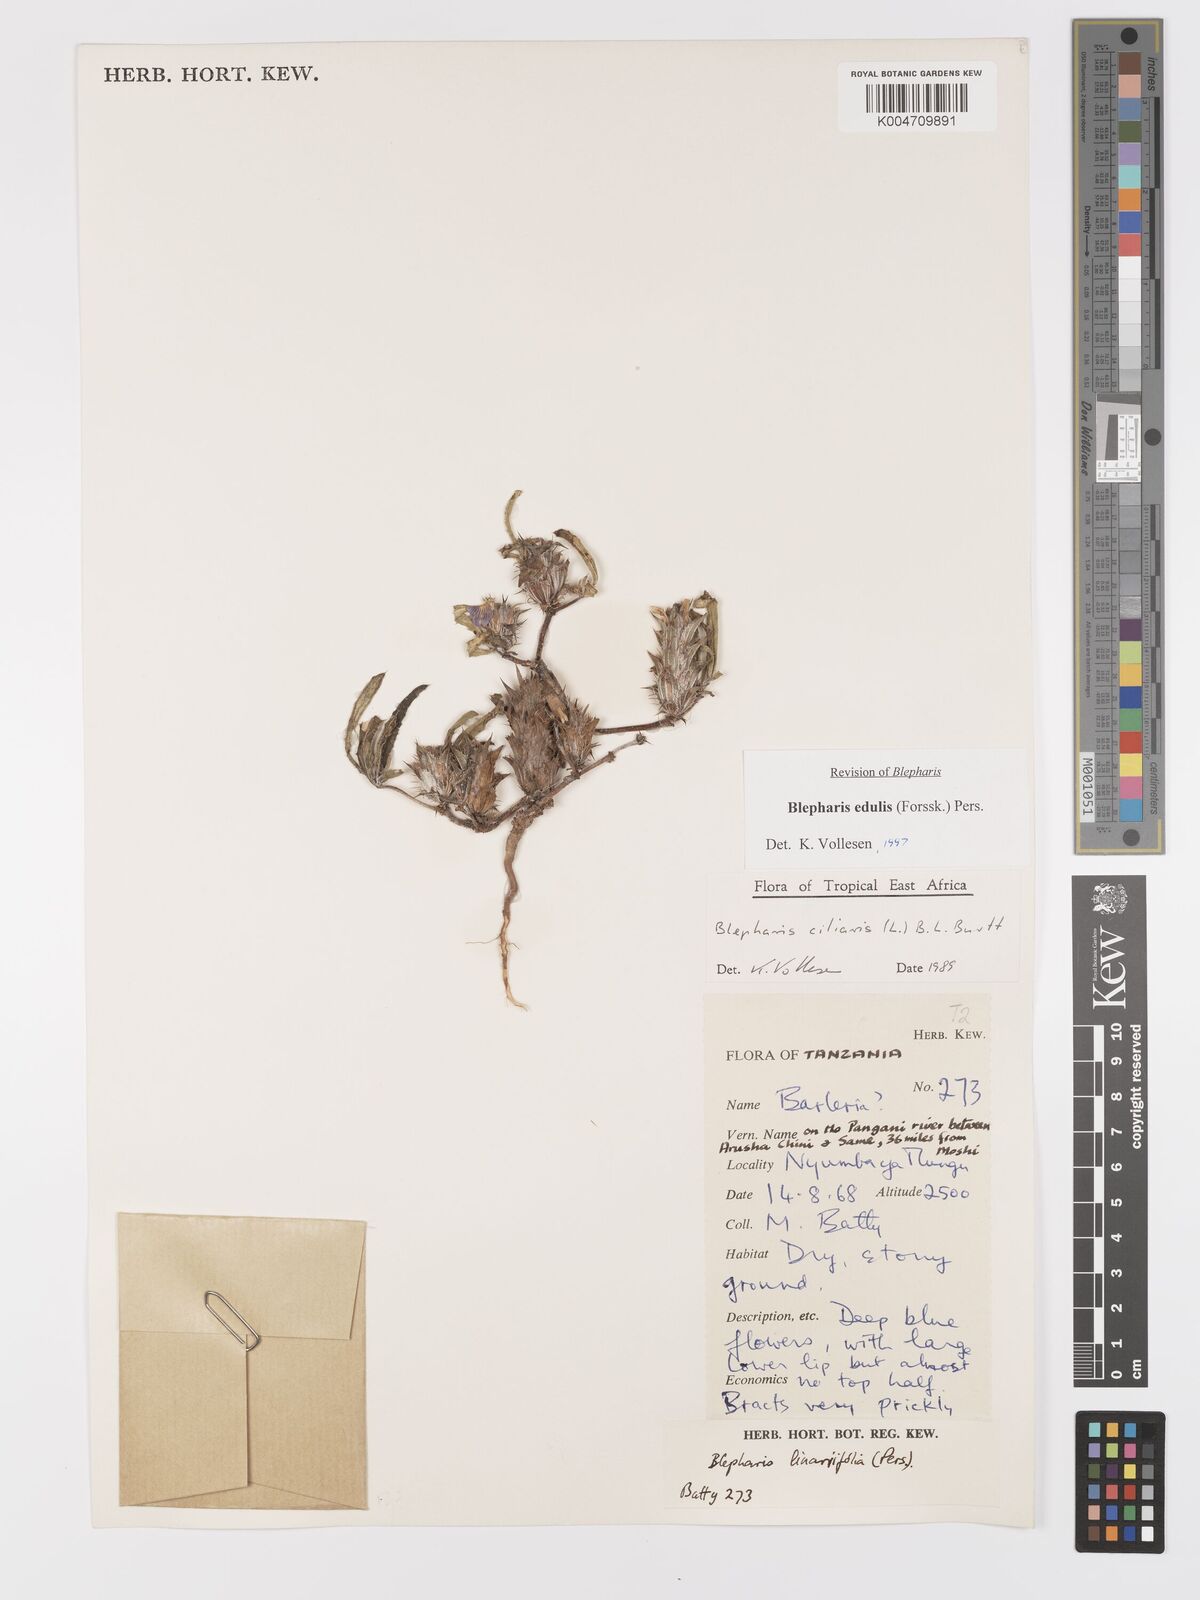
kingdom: Plantae
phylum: Tracheophyta
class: Magnoliopsida
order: Lamiales
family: Acanthaceae
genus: Blepharis
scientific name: Blepharis edulis
